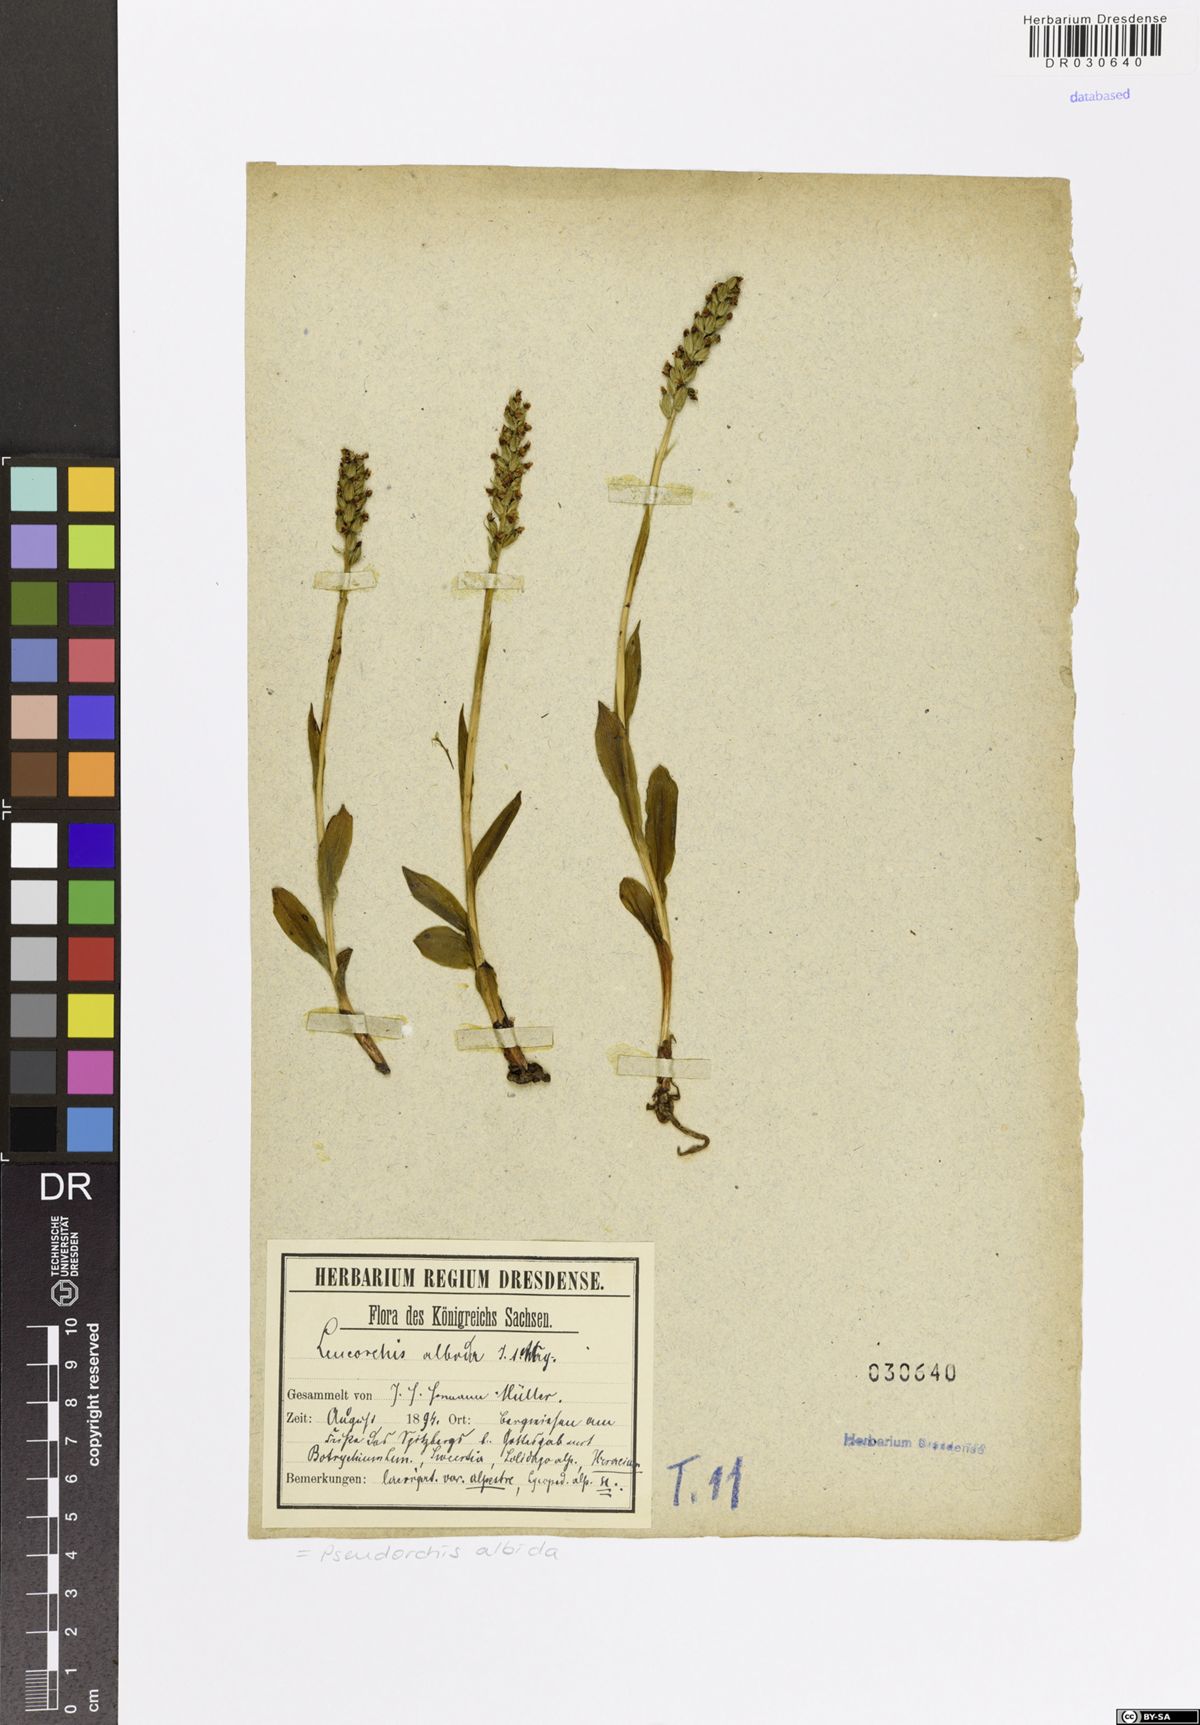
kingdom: Plantae
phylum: Tracheophyta
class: Liliopsida
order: Asparagales
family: Orchidaceae
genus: Pseudorchis
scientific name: Pseudorchis albida
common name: Small-white orchid
